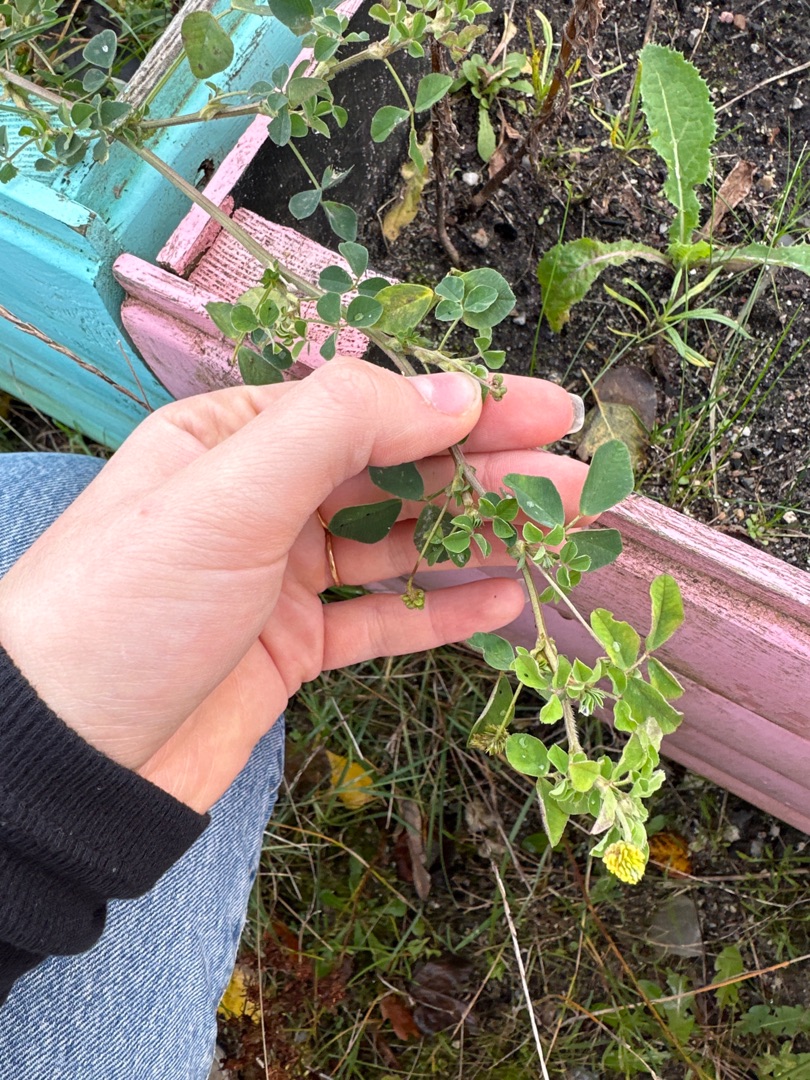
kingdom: Plantae
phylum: Tracheophyta
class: Magnoliopsida
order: Fabales
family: Fabaceae
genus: Medicago
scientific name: Medicago lupulina
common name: Humle-sneglebælg
